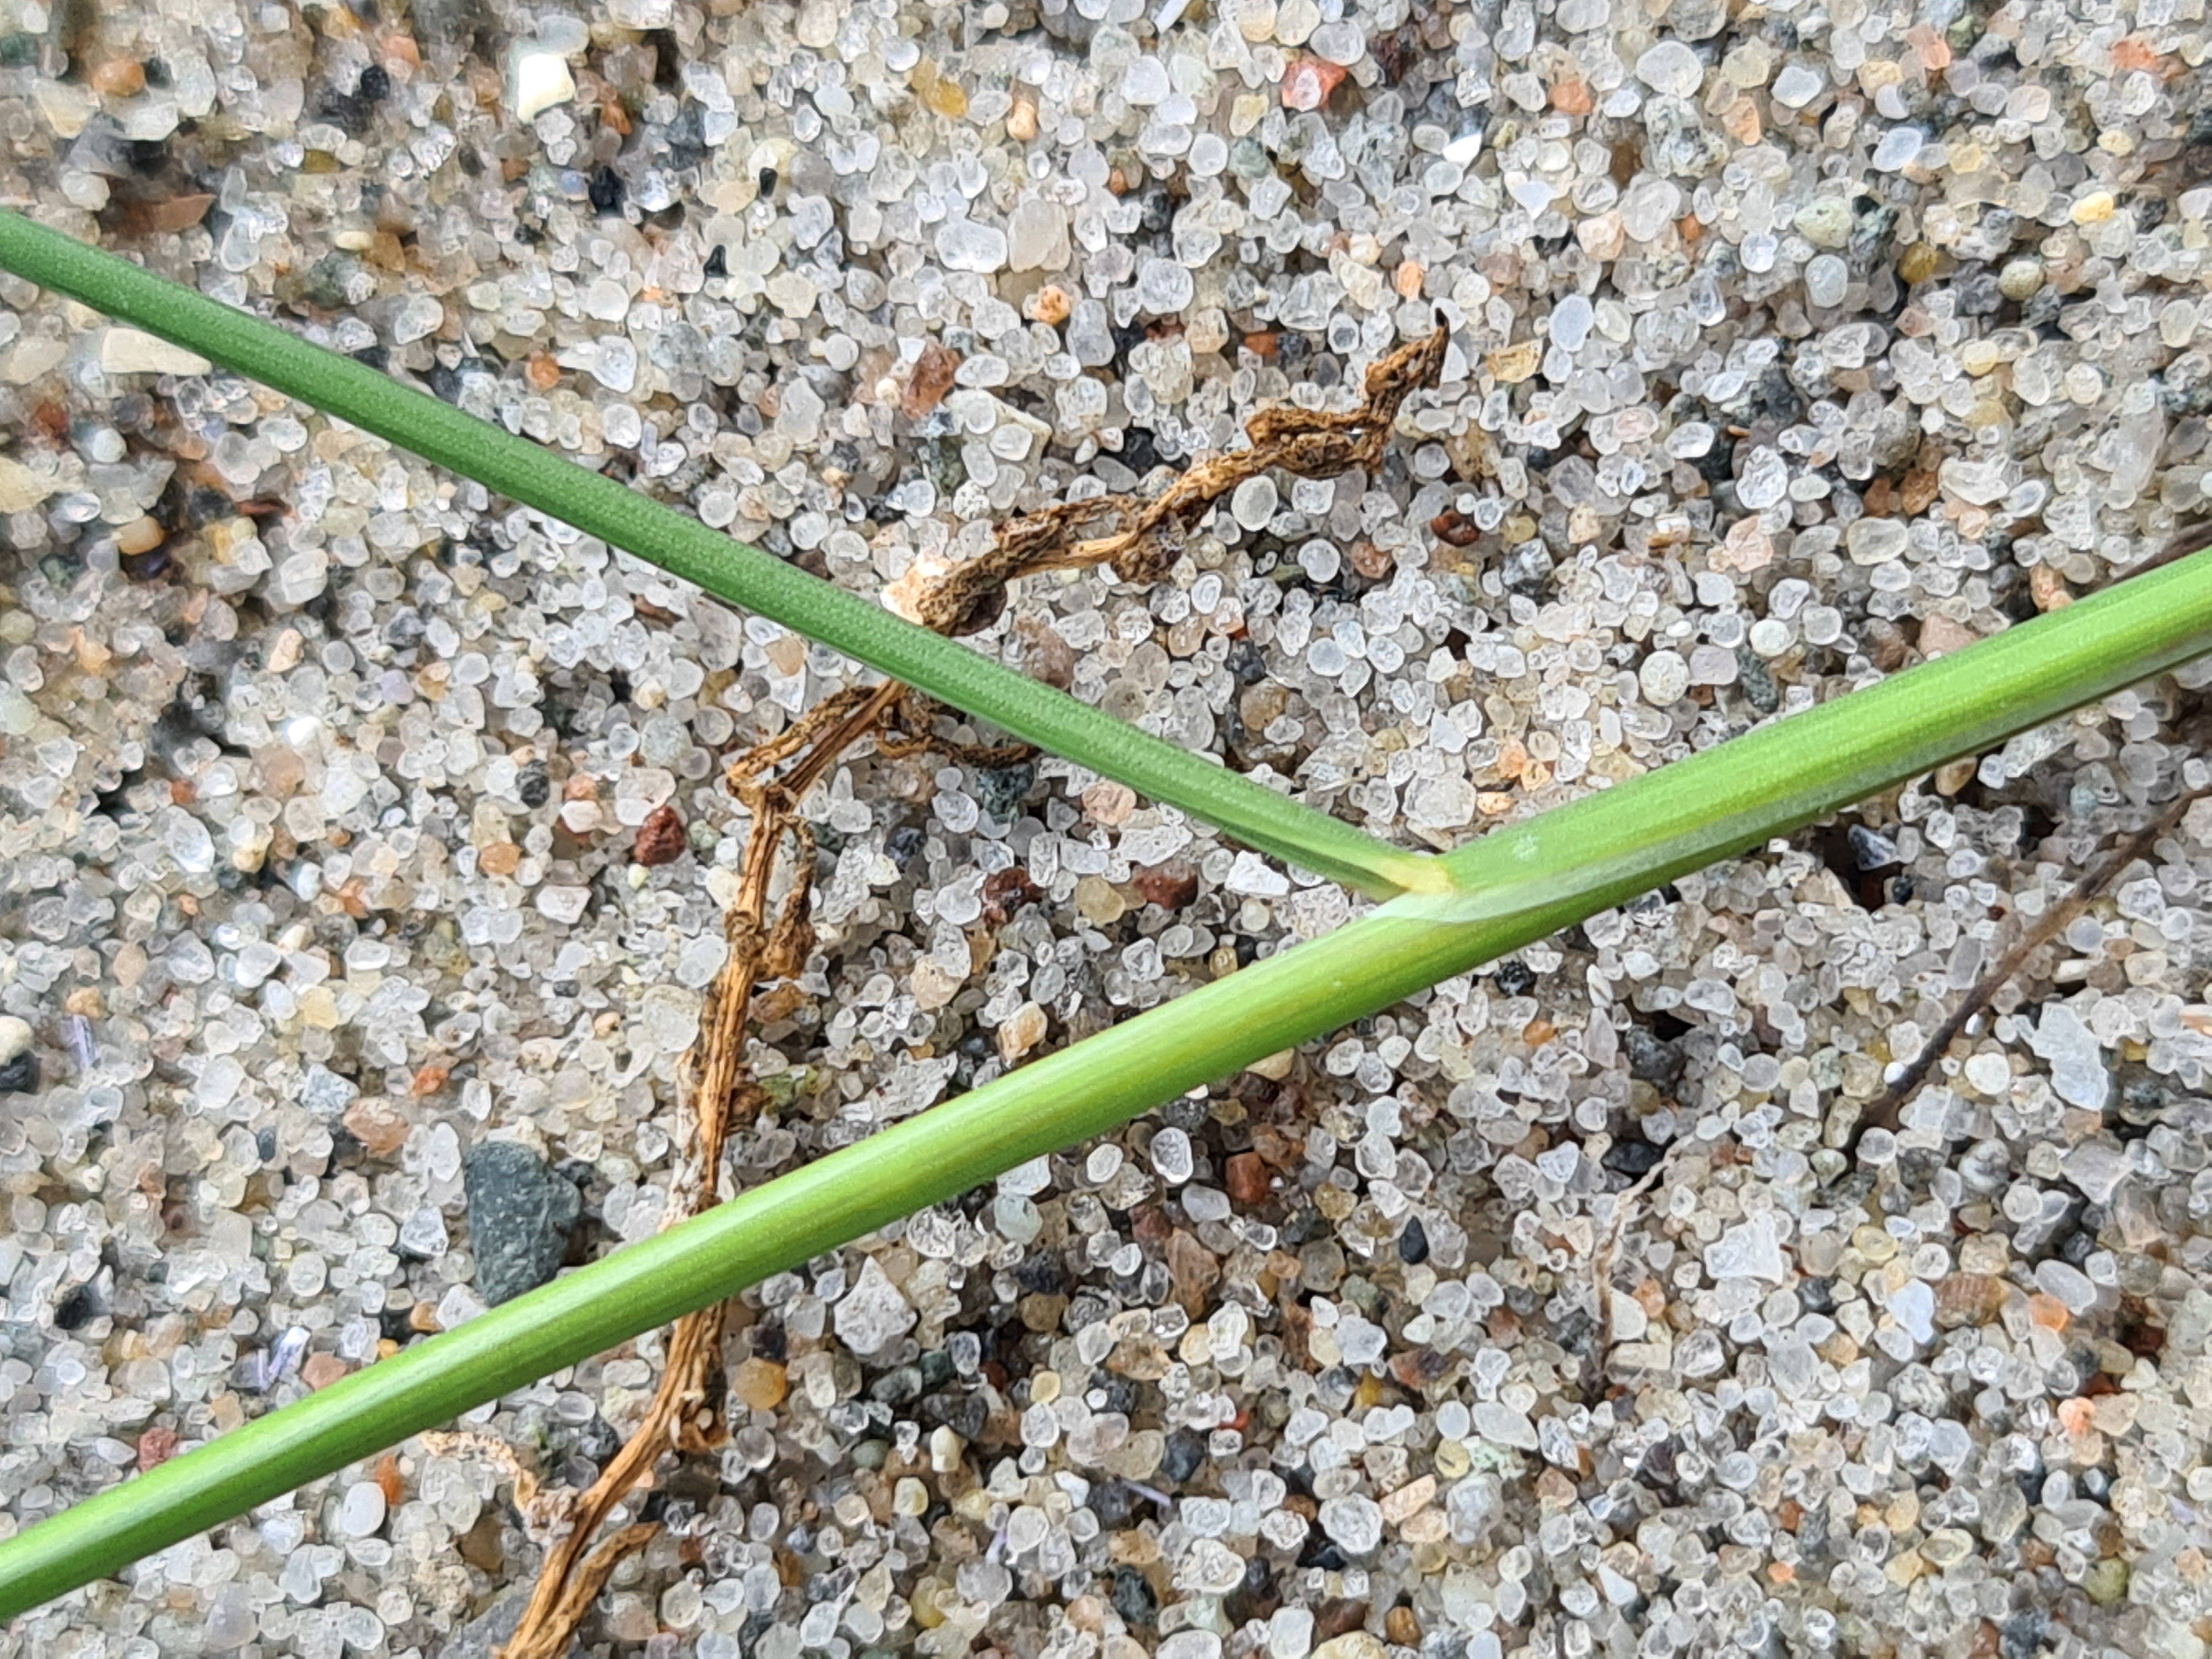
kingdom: Plantae
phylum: Tracheophyta
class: Liliopsida
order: Poales
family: Poaceae
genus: Puccinellia
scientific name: Puccinellia maritima
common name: Strand-annelgræs
